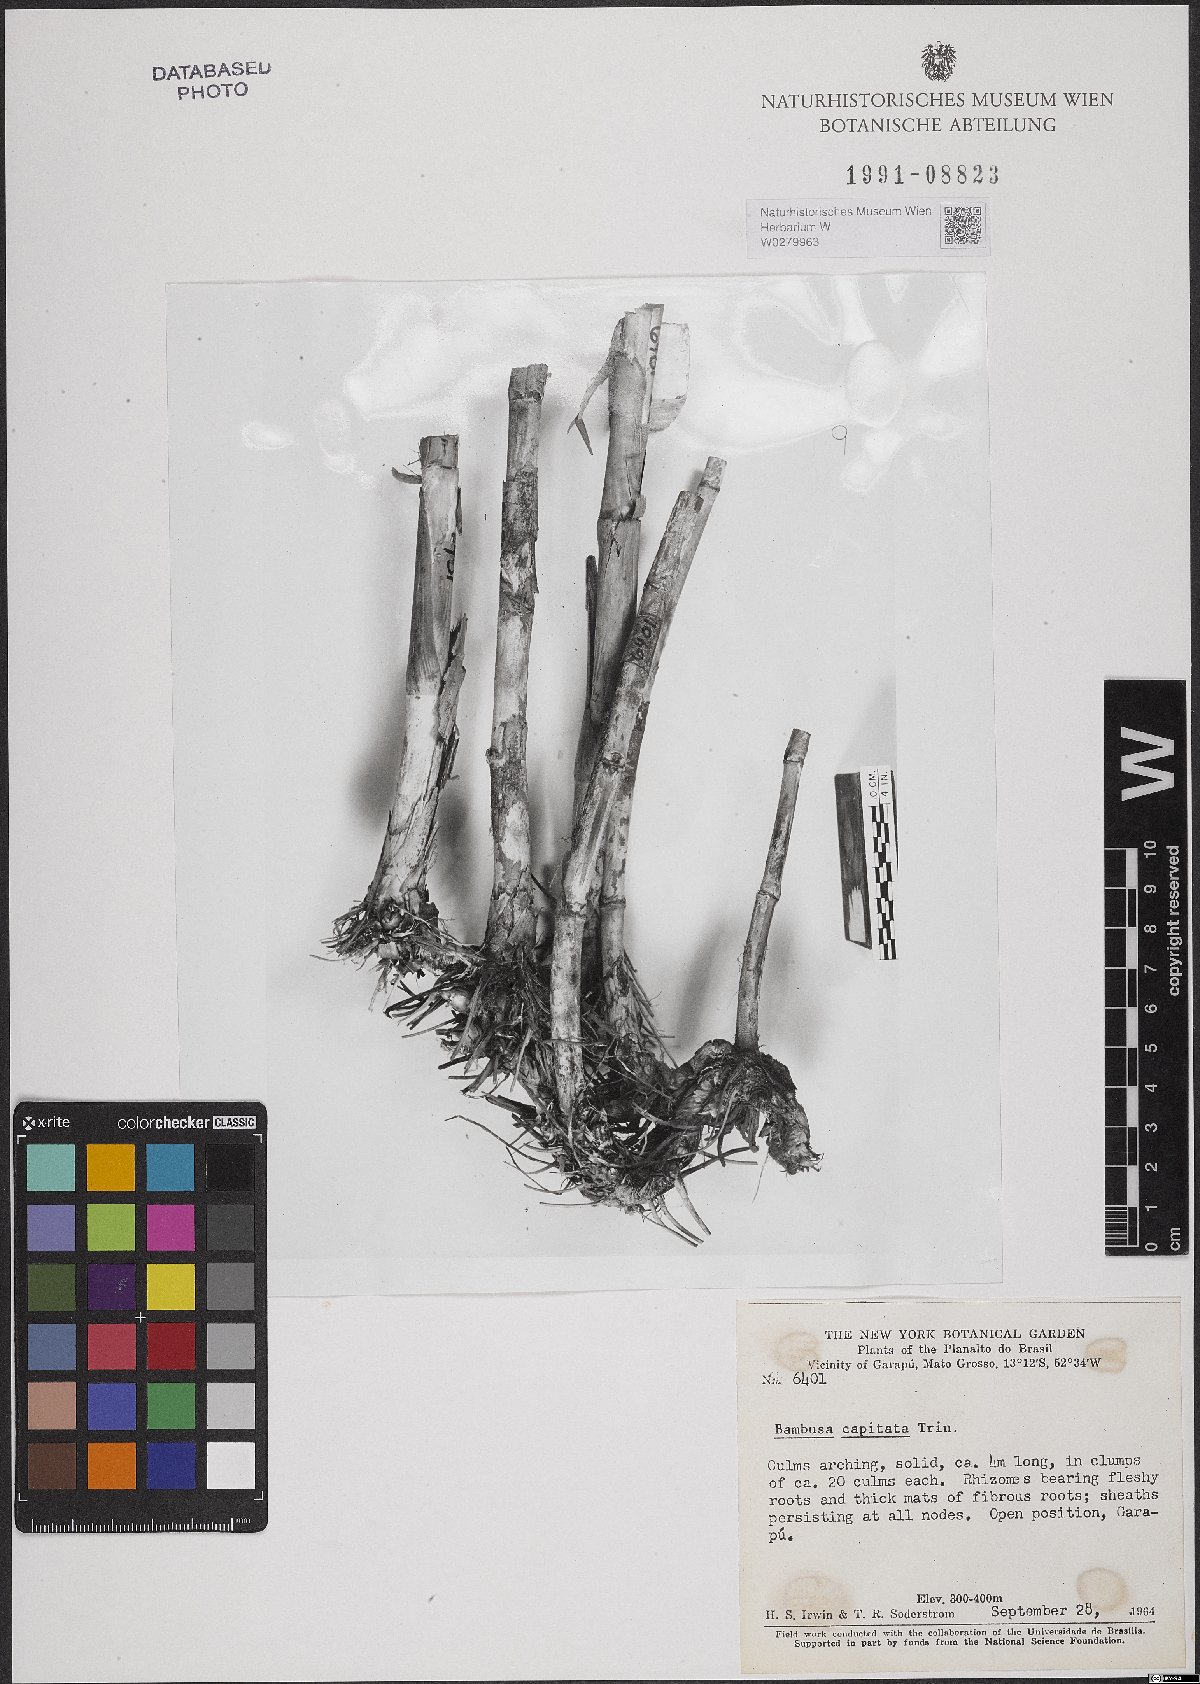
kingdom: Plantae
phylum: Tracheophyta
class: Liliopsida
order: Poales
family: Poaceae
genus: Eremocaulon
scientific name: Eremocaulon capitatum
